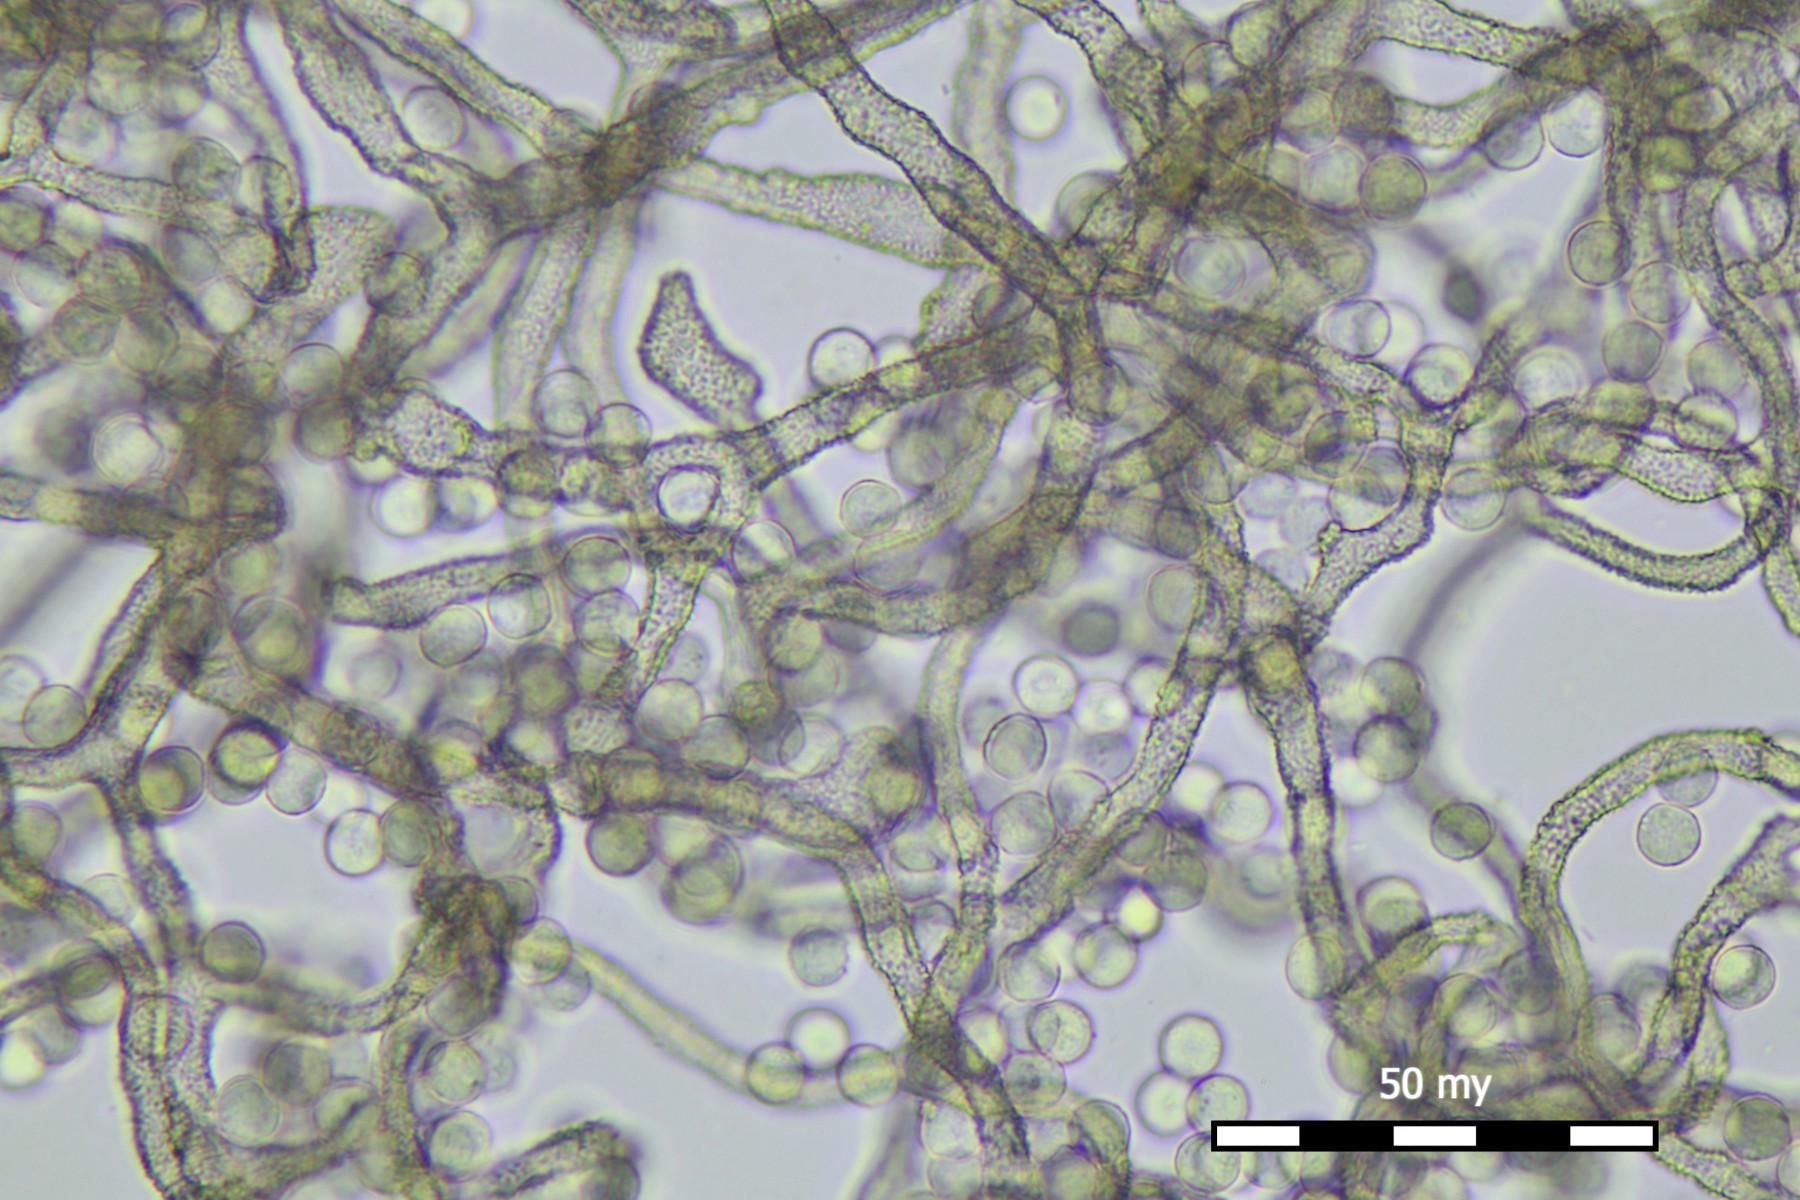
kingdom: Protozoa
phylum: Mycetozoa
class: Myxomycetes
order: Trichiales
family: Arcyriaceae
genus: Arcyria
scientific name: Arcyria cinerea
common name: White carnival candy slime mold
